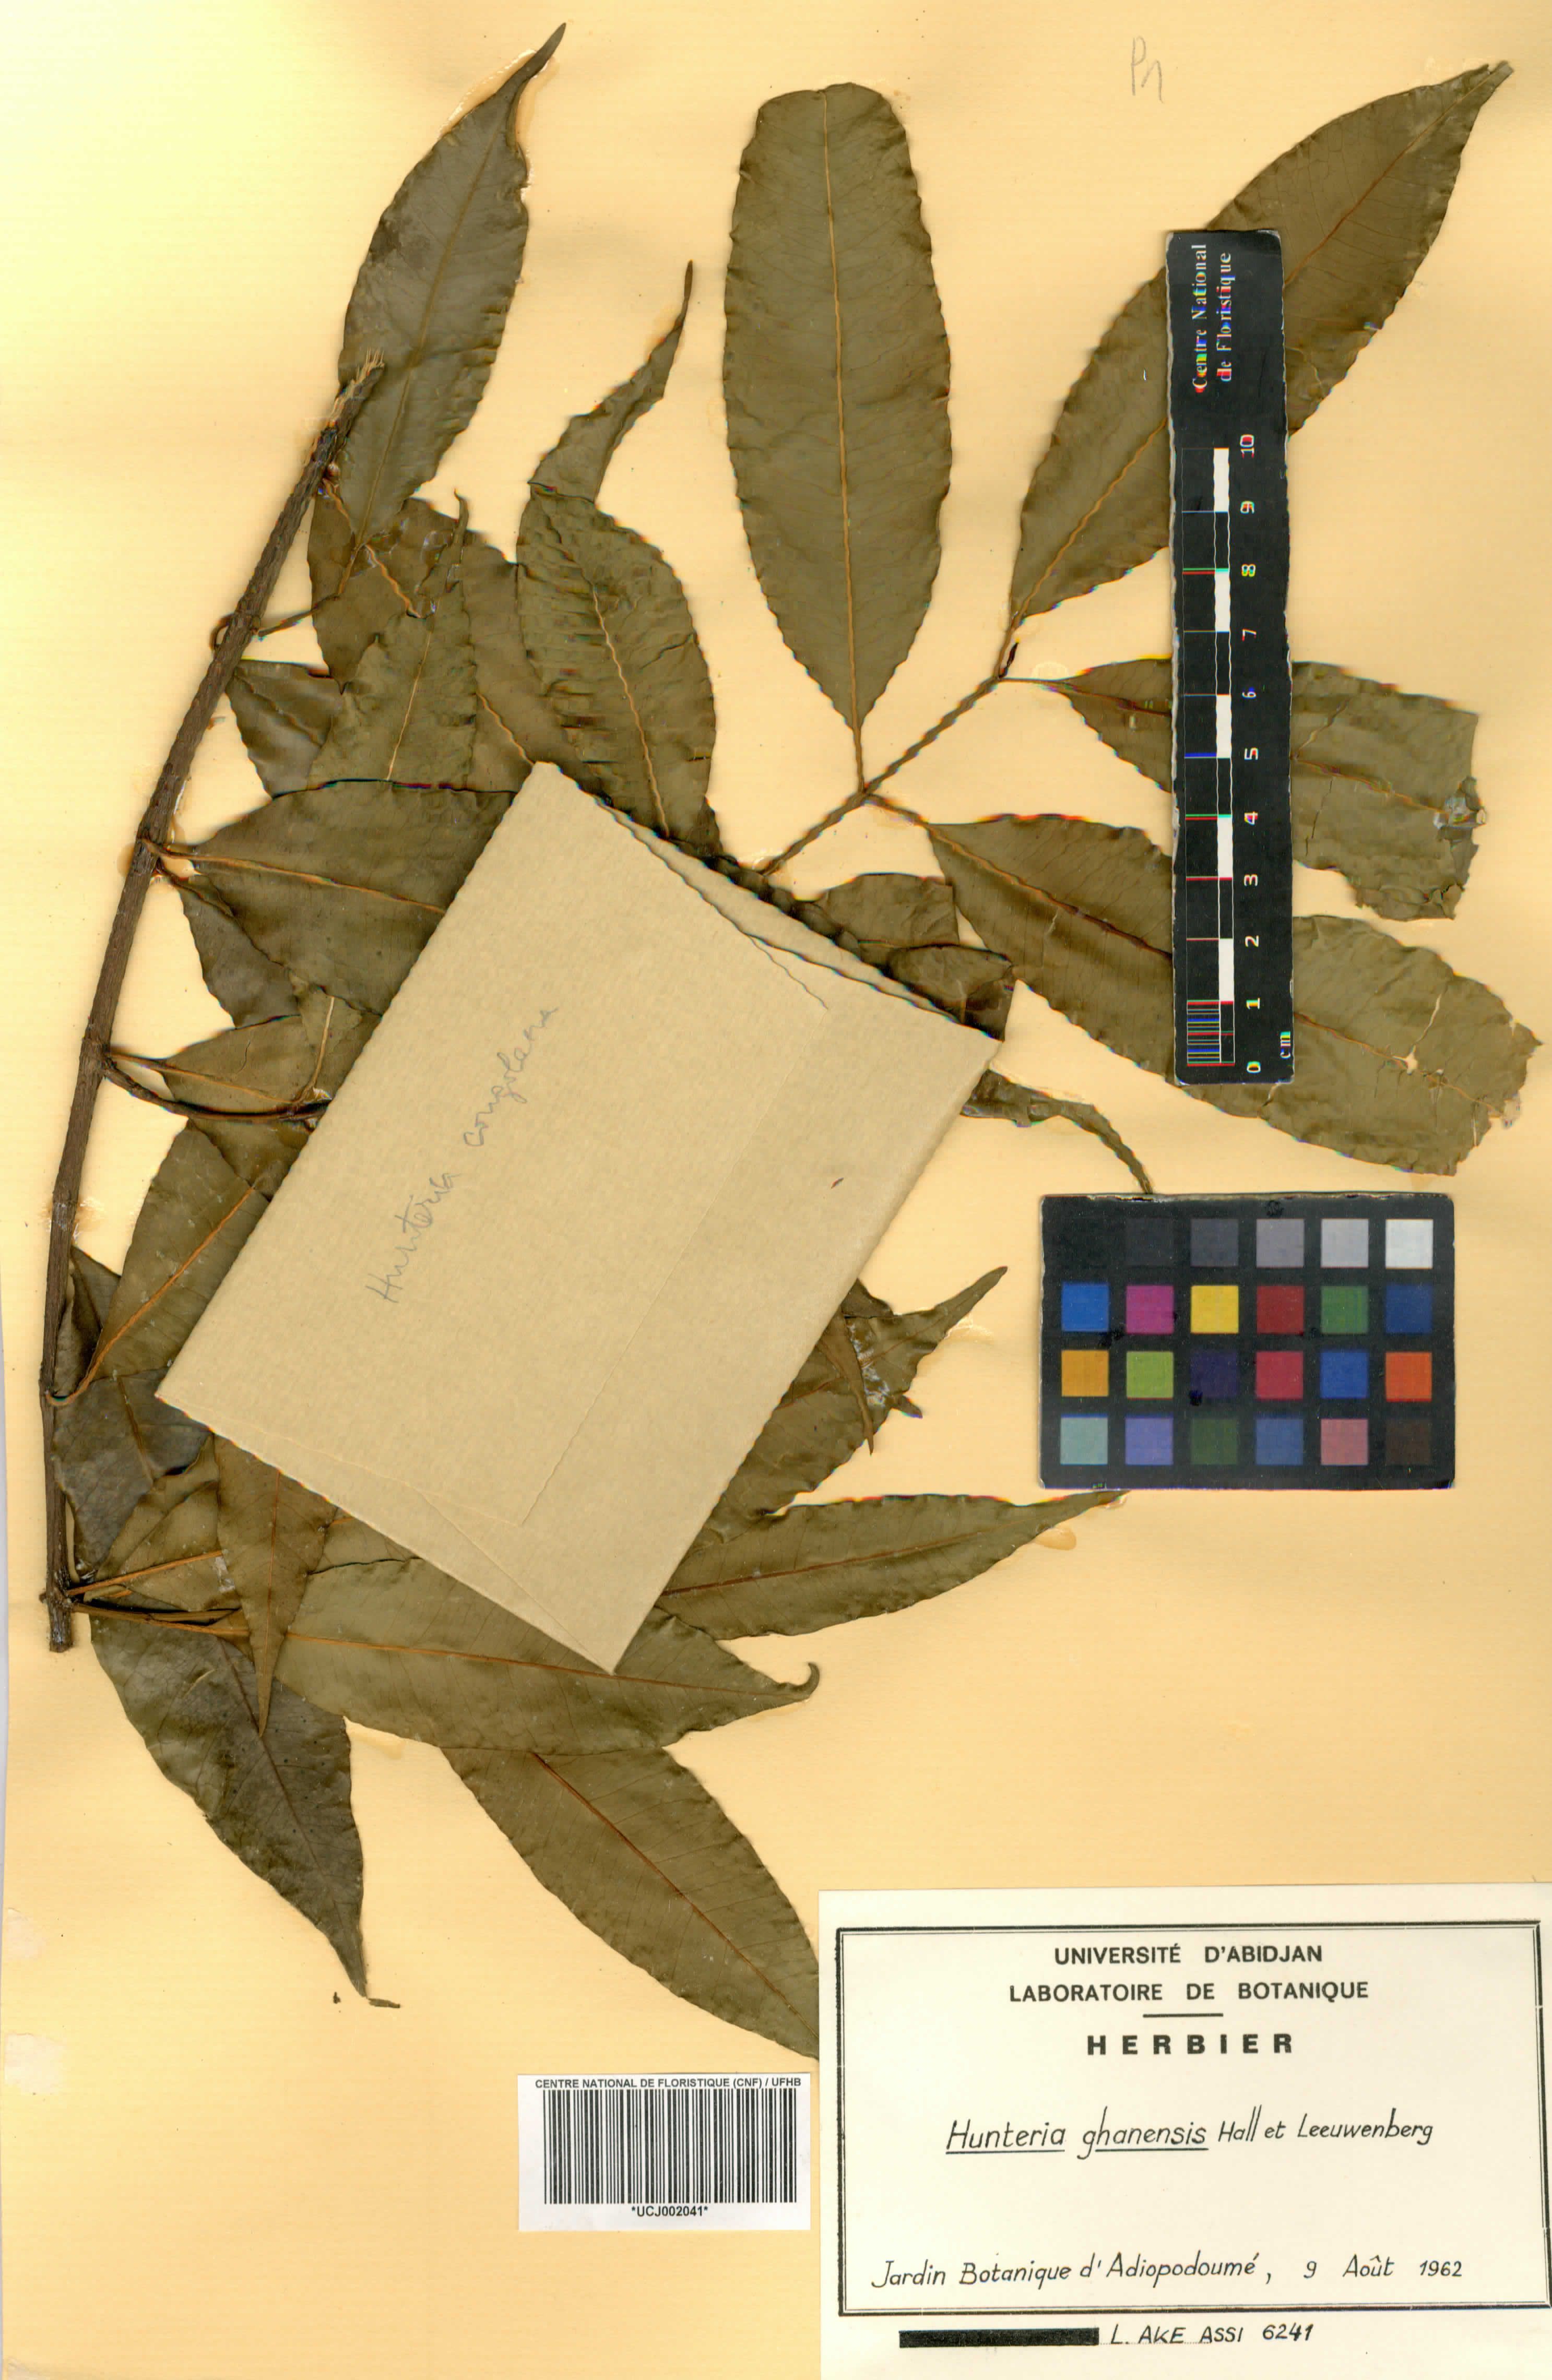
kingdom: Plantae
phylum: Tracheophyta
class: Magnoliopsida
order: Gentianales
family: Apocynaceae
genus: Hunteria
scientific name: Hunteria ghanensis
